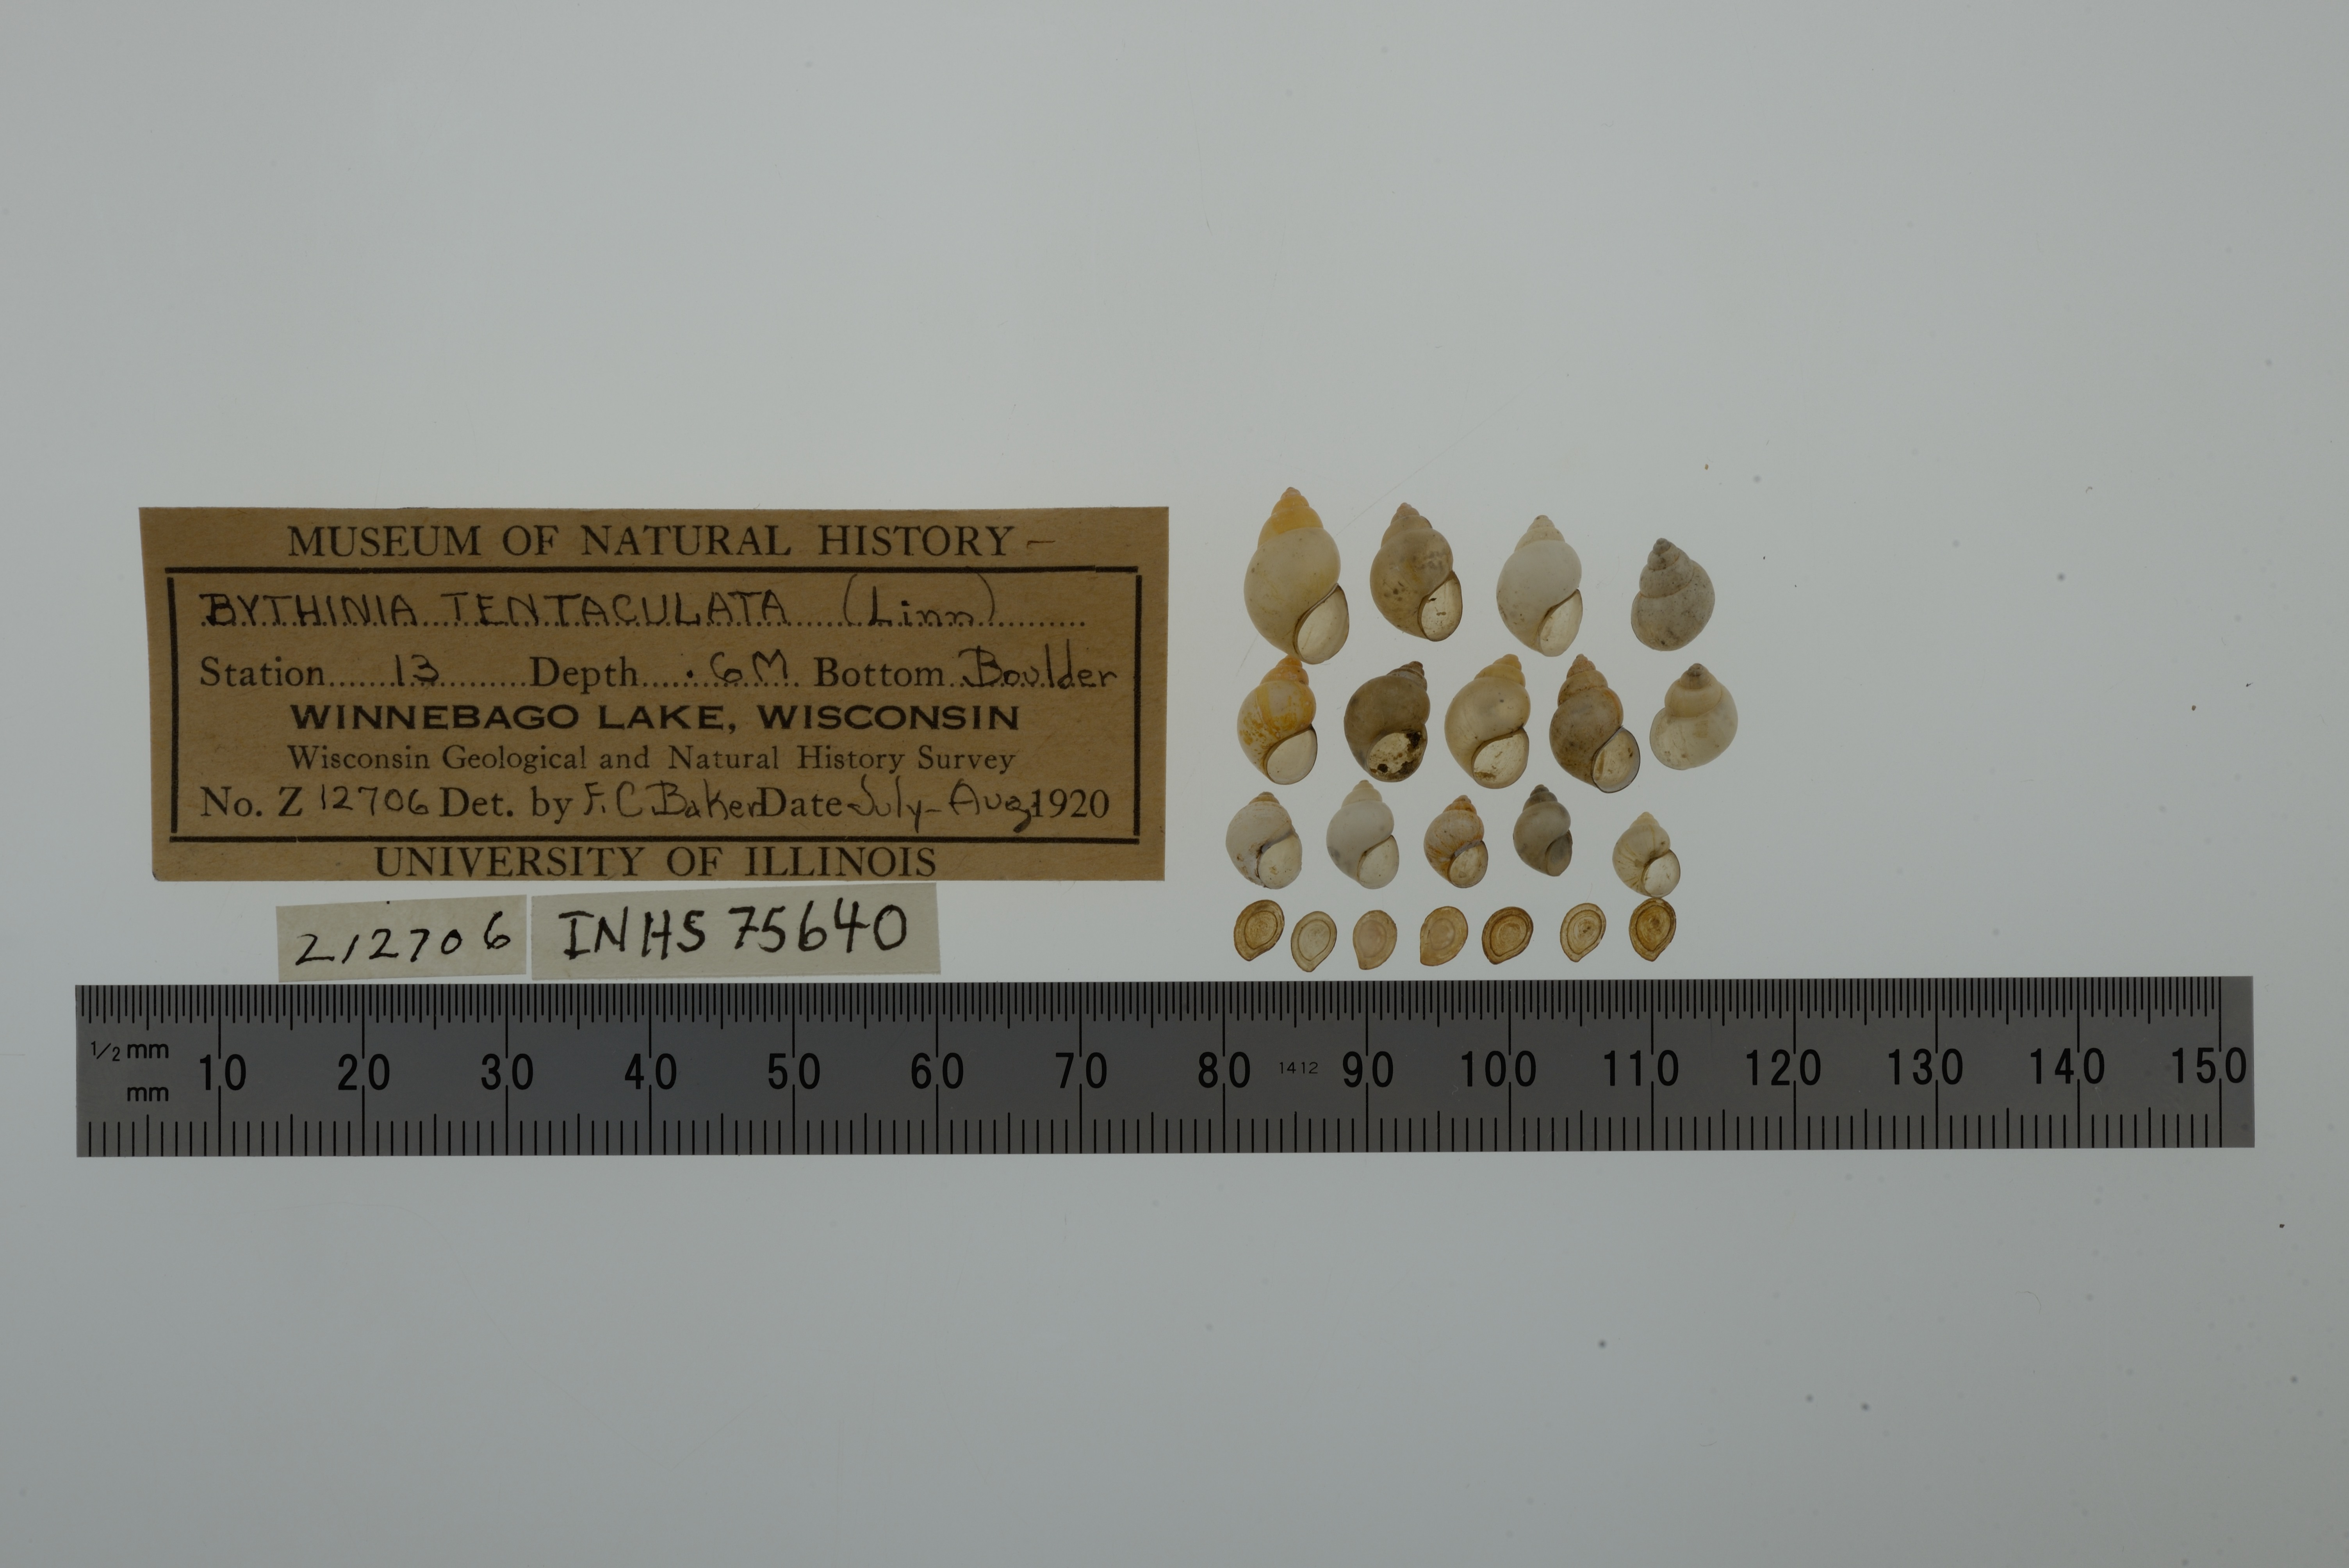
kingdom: Animalia
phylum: Mollusca
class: Gastropoda
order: Littorinimorpha
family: Bithyniidae
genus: Bithynia
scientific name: Bithynia tentaculata
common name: Common bithynia
